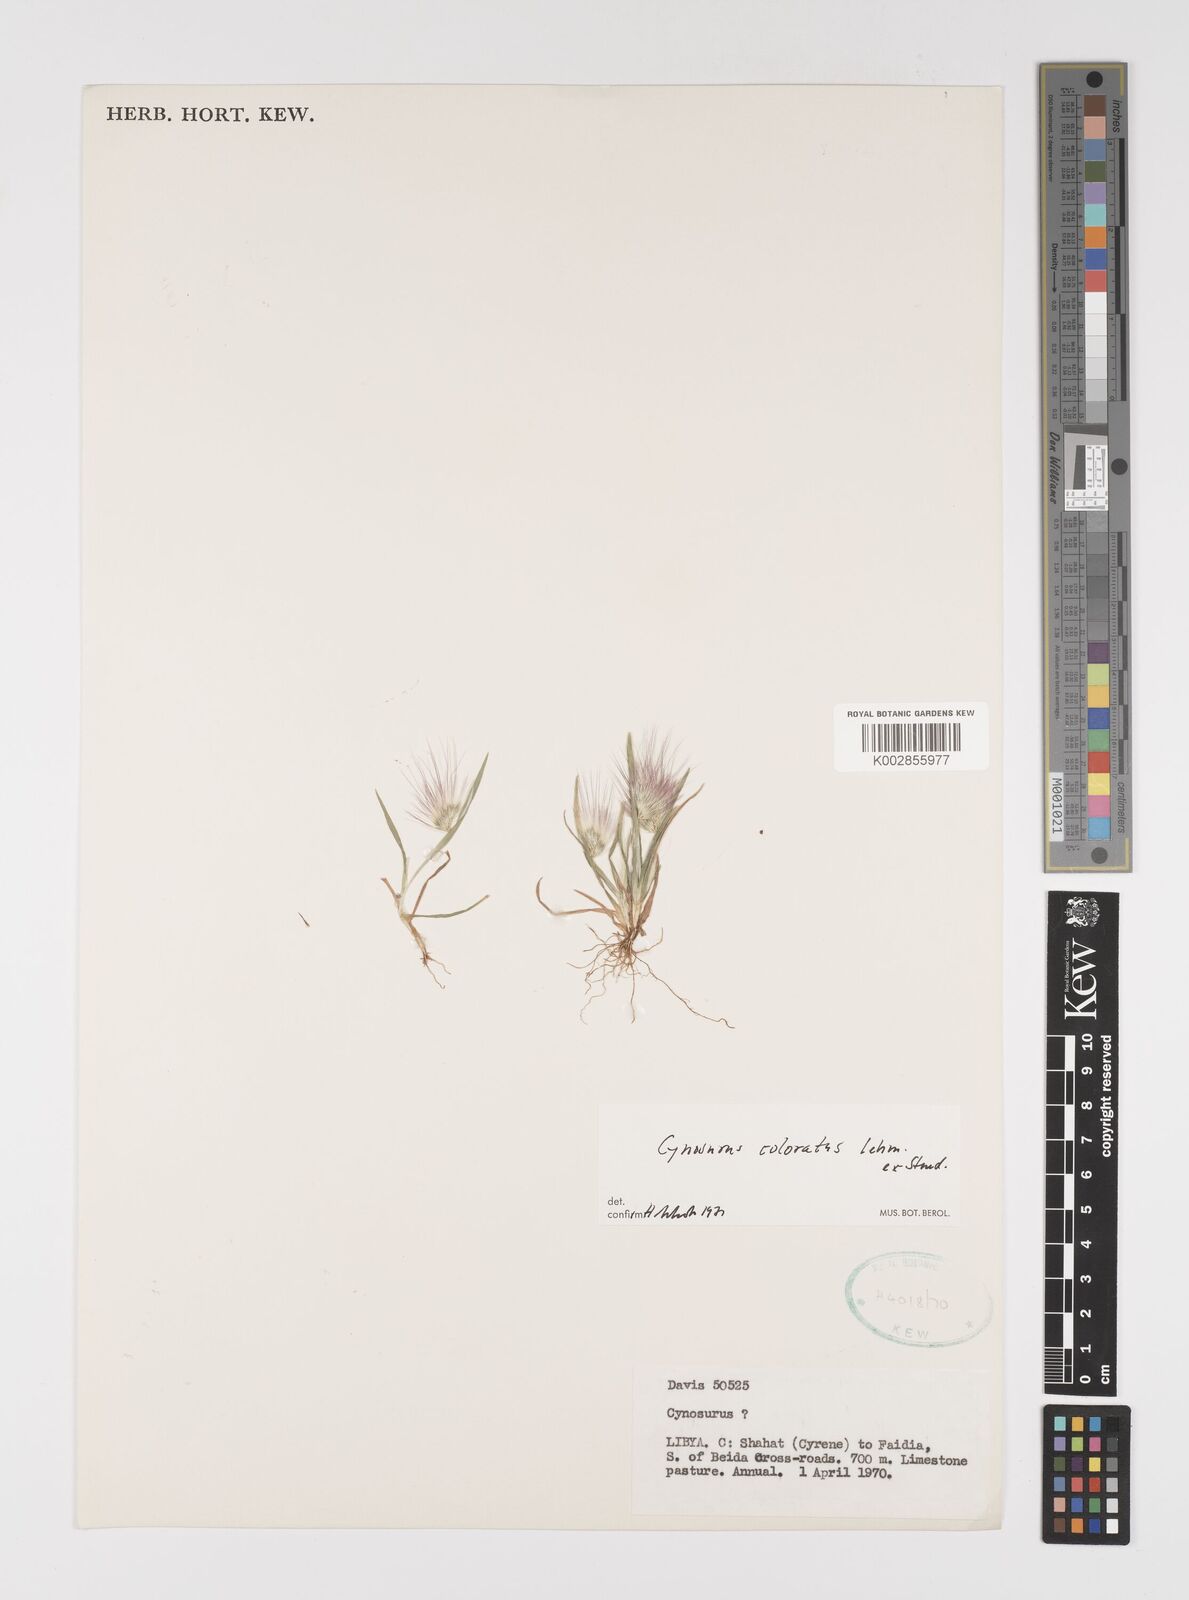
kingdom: Plantae
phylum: Tracheophyta
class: Liliopsida
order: Poales
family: Poaceae
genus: Cynosurus
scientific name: Cynosurus coloratus
